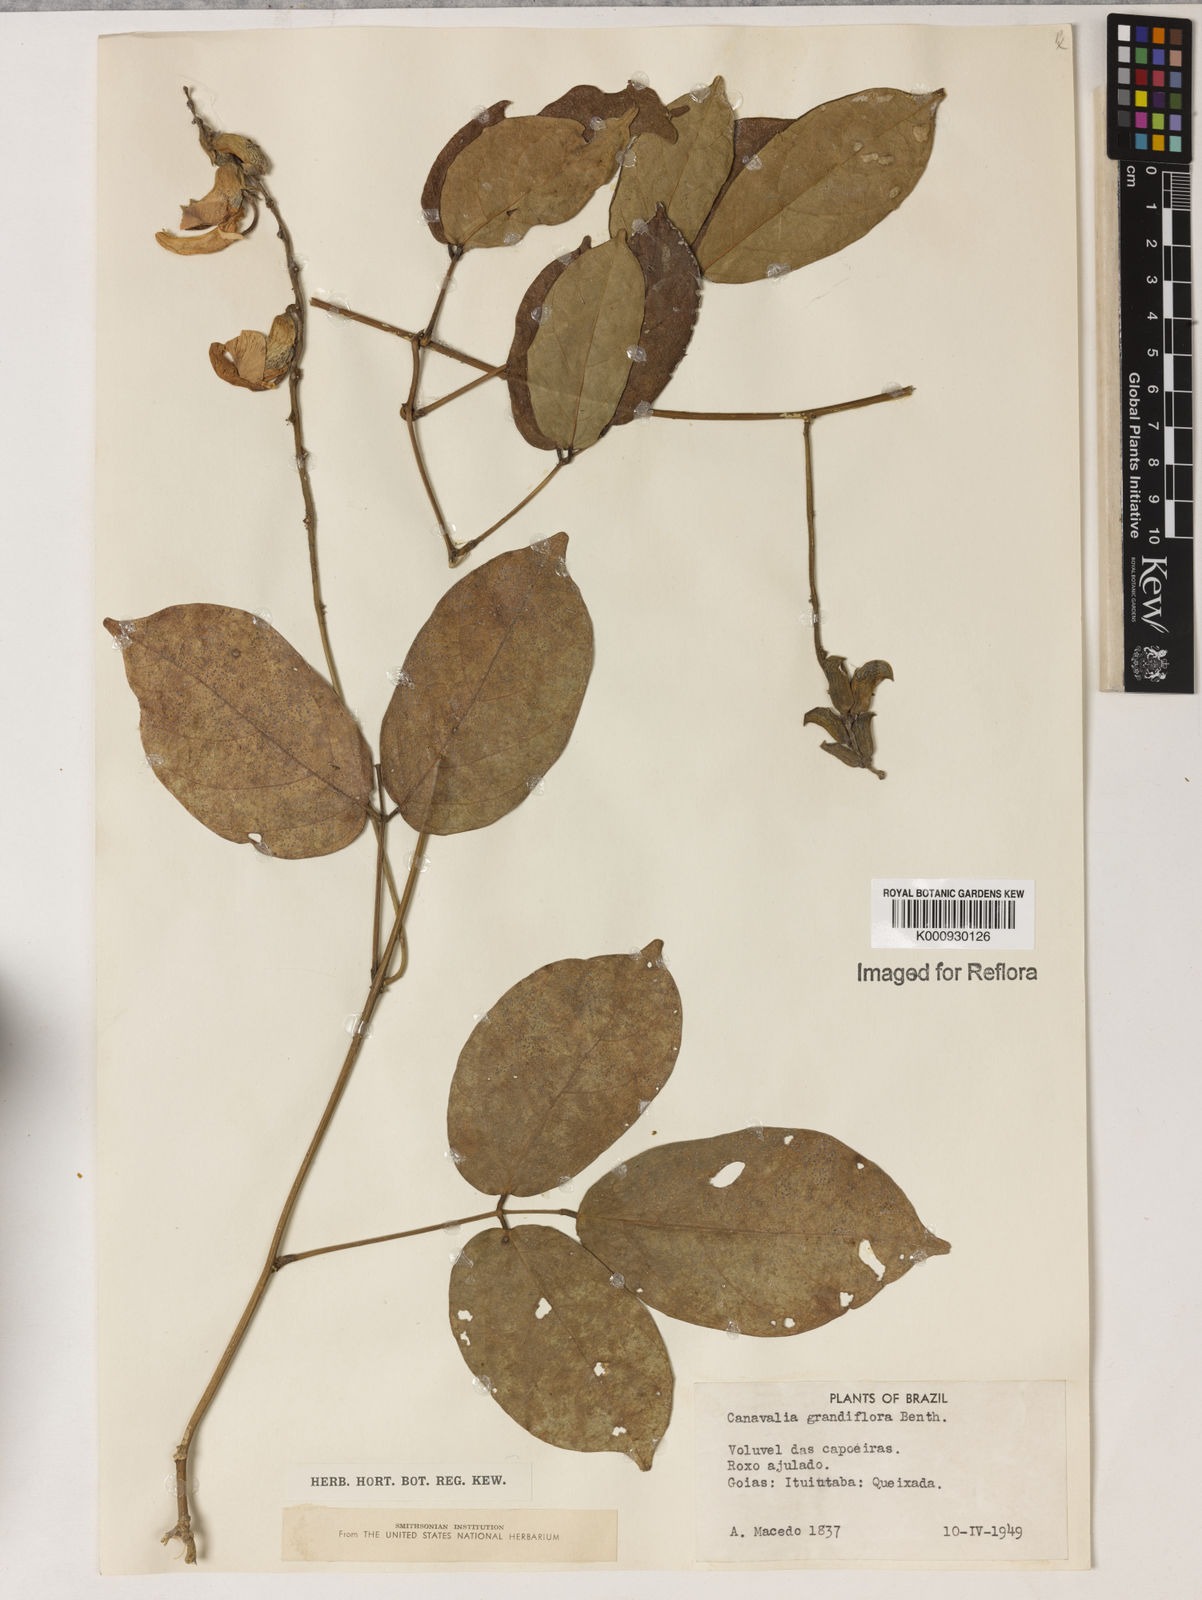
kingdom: Plantae
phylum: Tracheophyta
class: Magnoliopsida
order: Fabales
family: Fabaceae
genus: Canavalia
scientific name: Canavalia grandiflora
